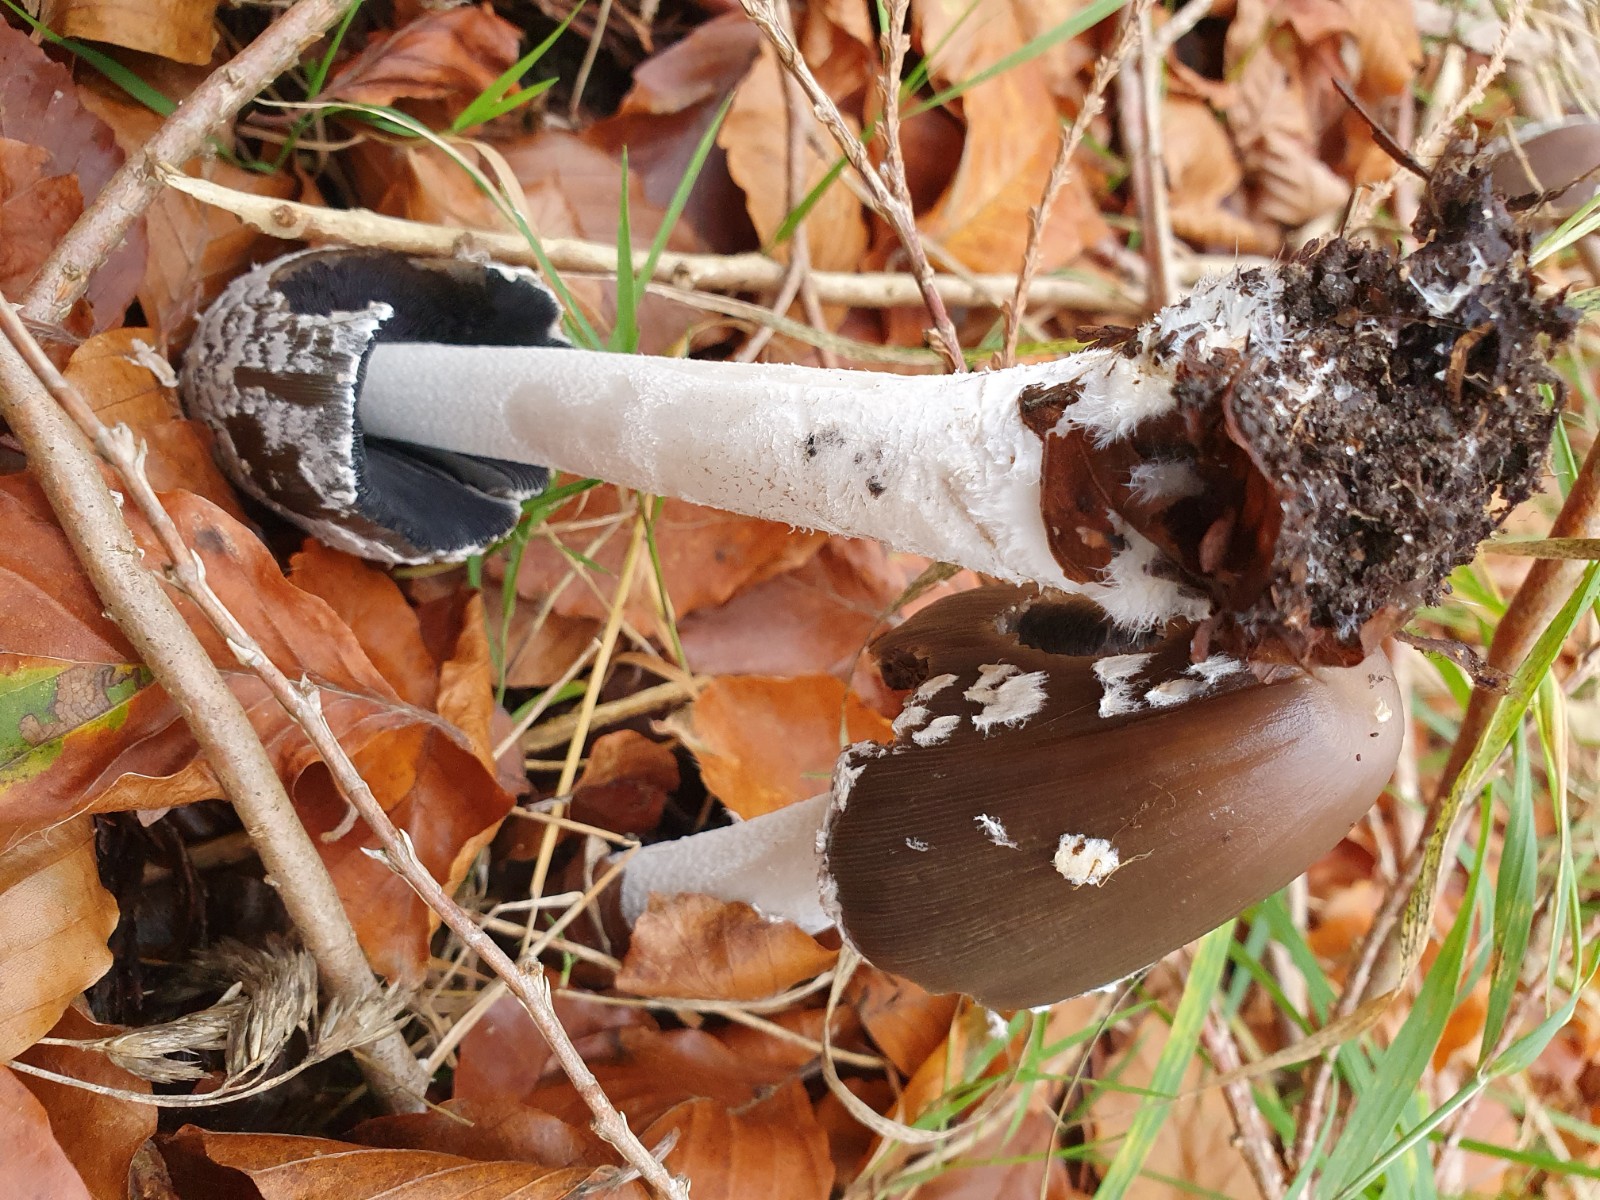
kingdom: Fungi
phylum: Basidiomycota
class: Agaricomycetes
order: Agaricales
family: Psathyrellaceae
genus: Coprinopsis
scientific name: Coprinopsis picacea
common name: skade-blækhat
